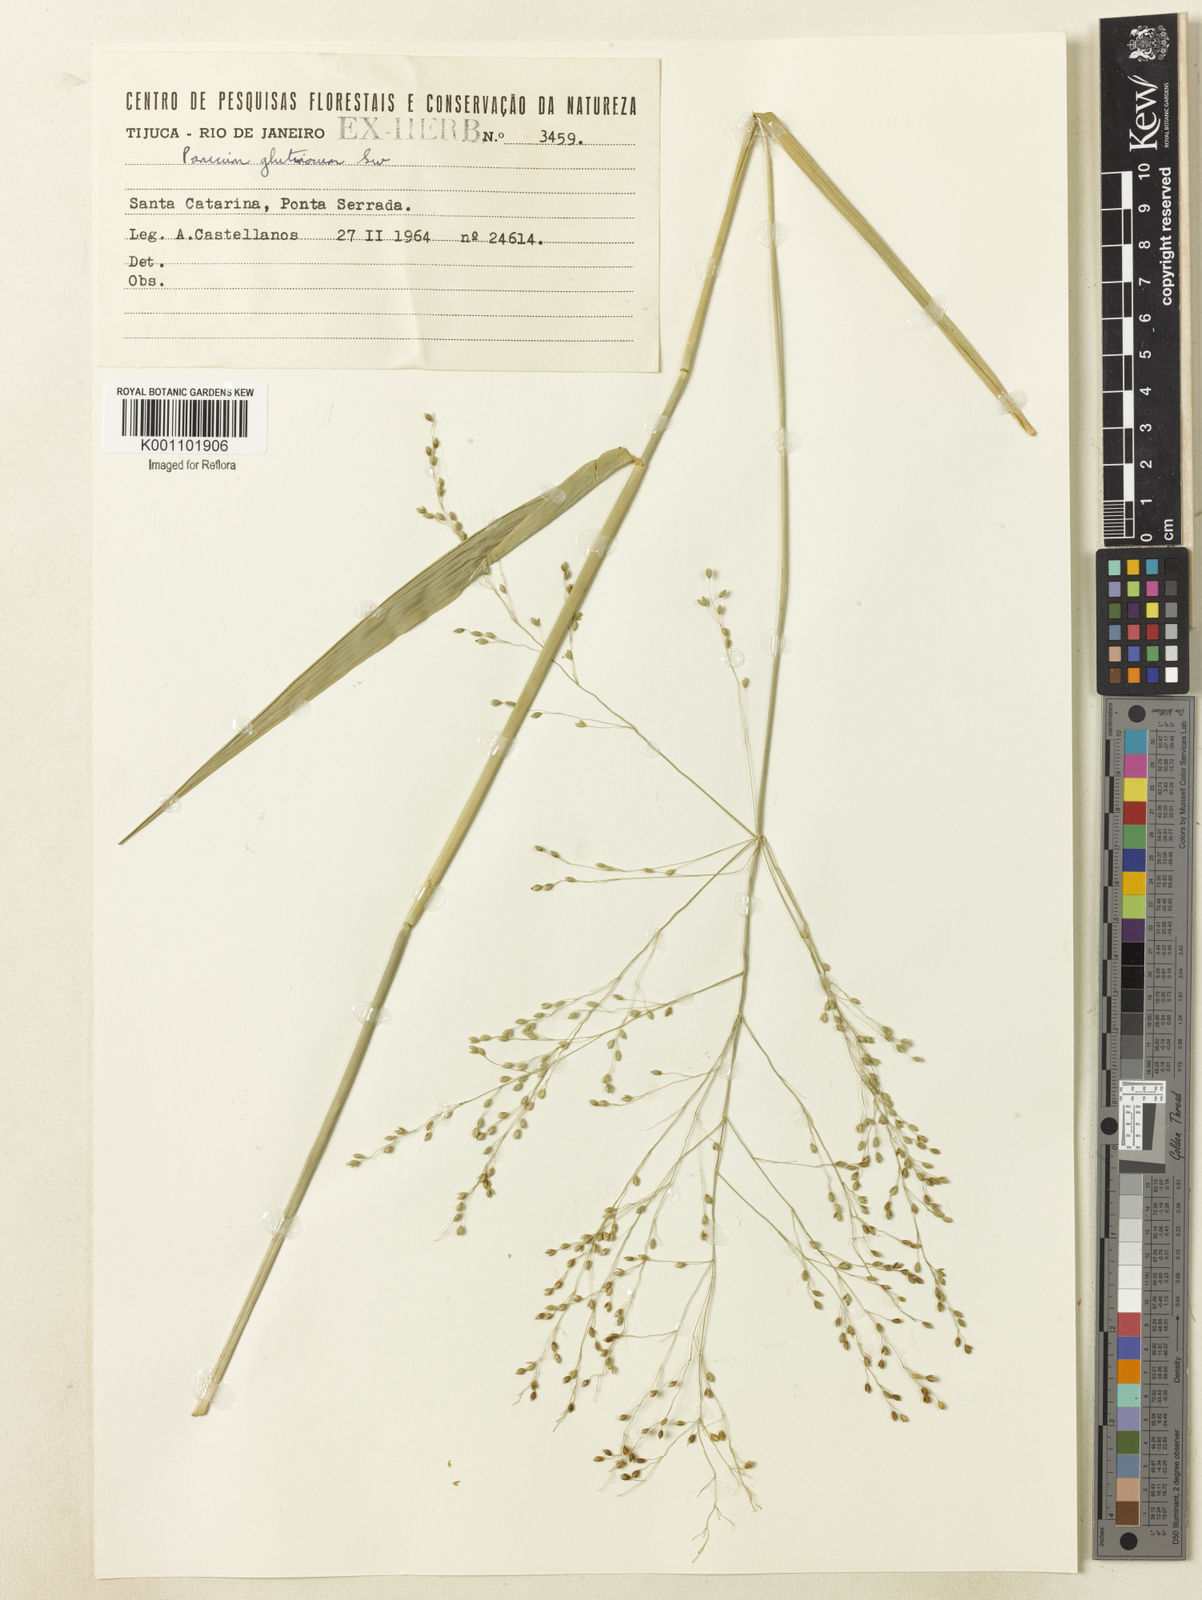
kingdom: Plantae
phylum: Tracheophyta
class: Liliopsida
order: Poales
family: Poaceae
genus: Homolepis
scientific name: Homolepis glutinosa
